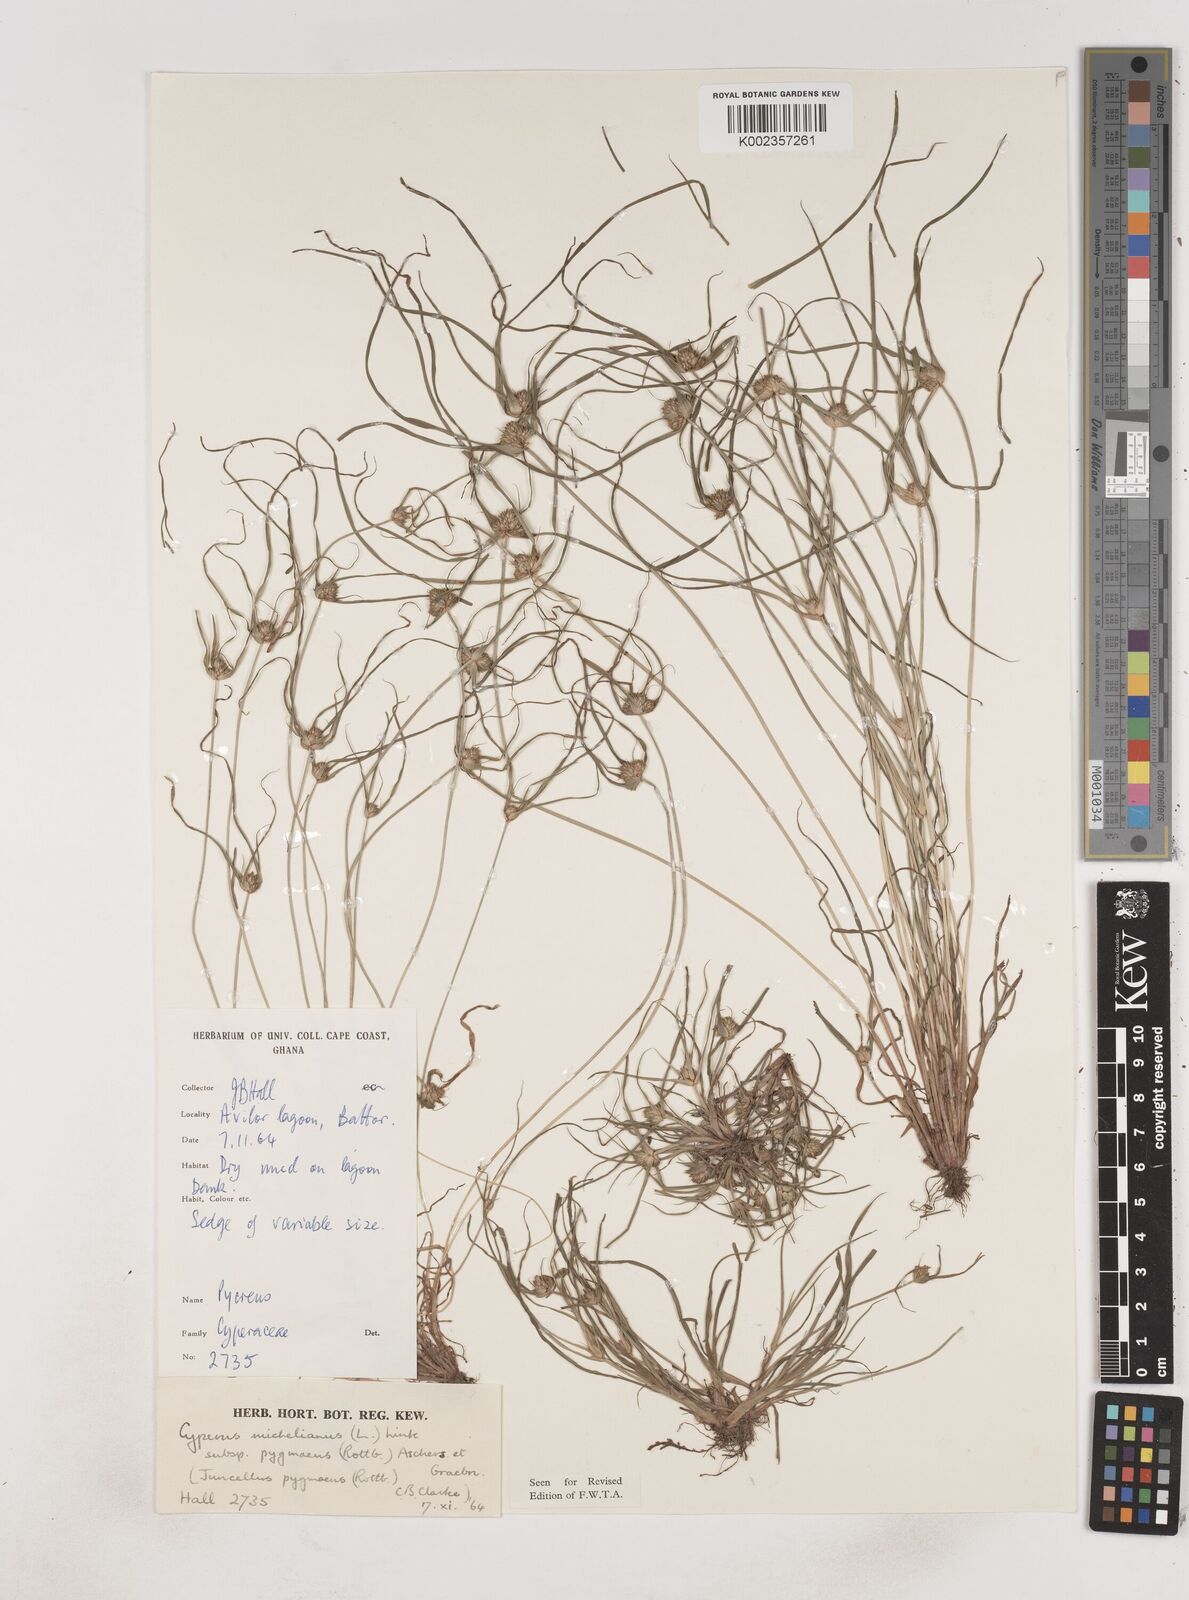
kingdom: Plantae
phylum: Tracheophyta
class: Liliopsida
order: Poales
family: Cyperaceae
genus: Cyperus
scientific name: Cyperus michelianus
